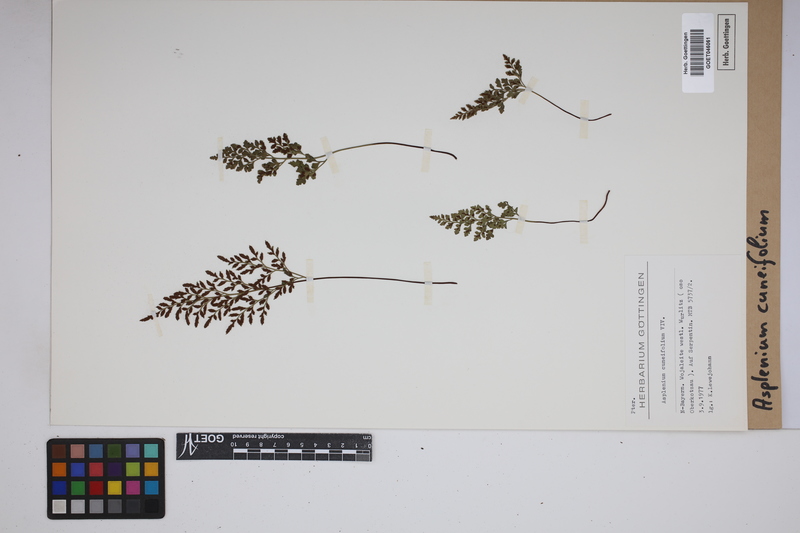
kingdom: Plantae
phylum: Tracheophyta
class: Polypodiopsida
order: Polypodiales
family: Aspleniaceae
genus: Asplenium
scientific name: Asplenium cuneifolium
